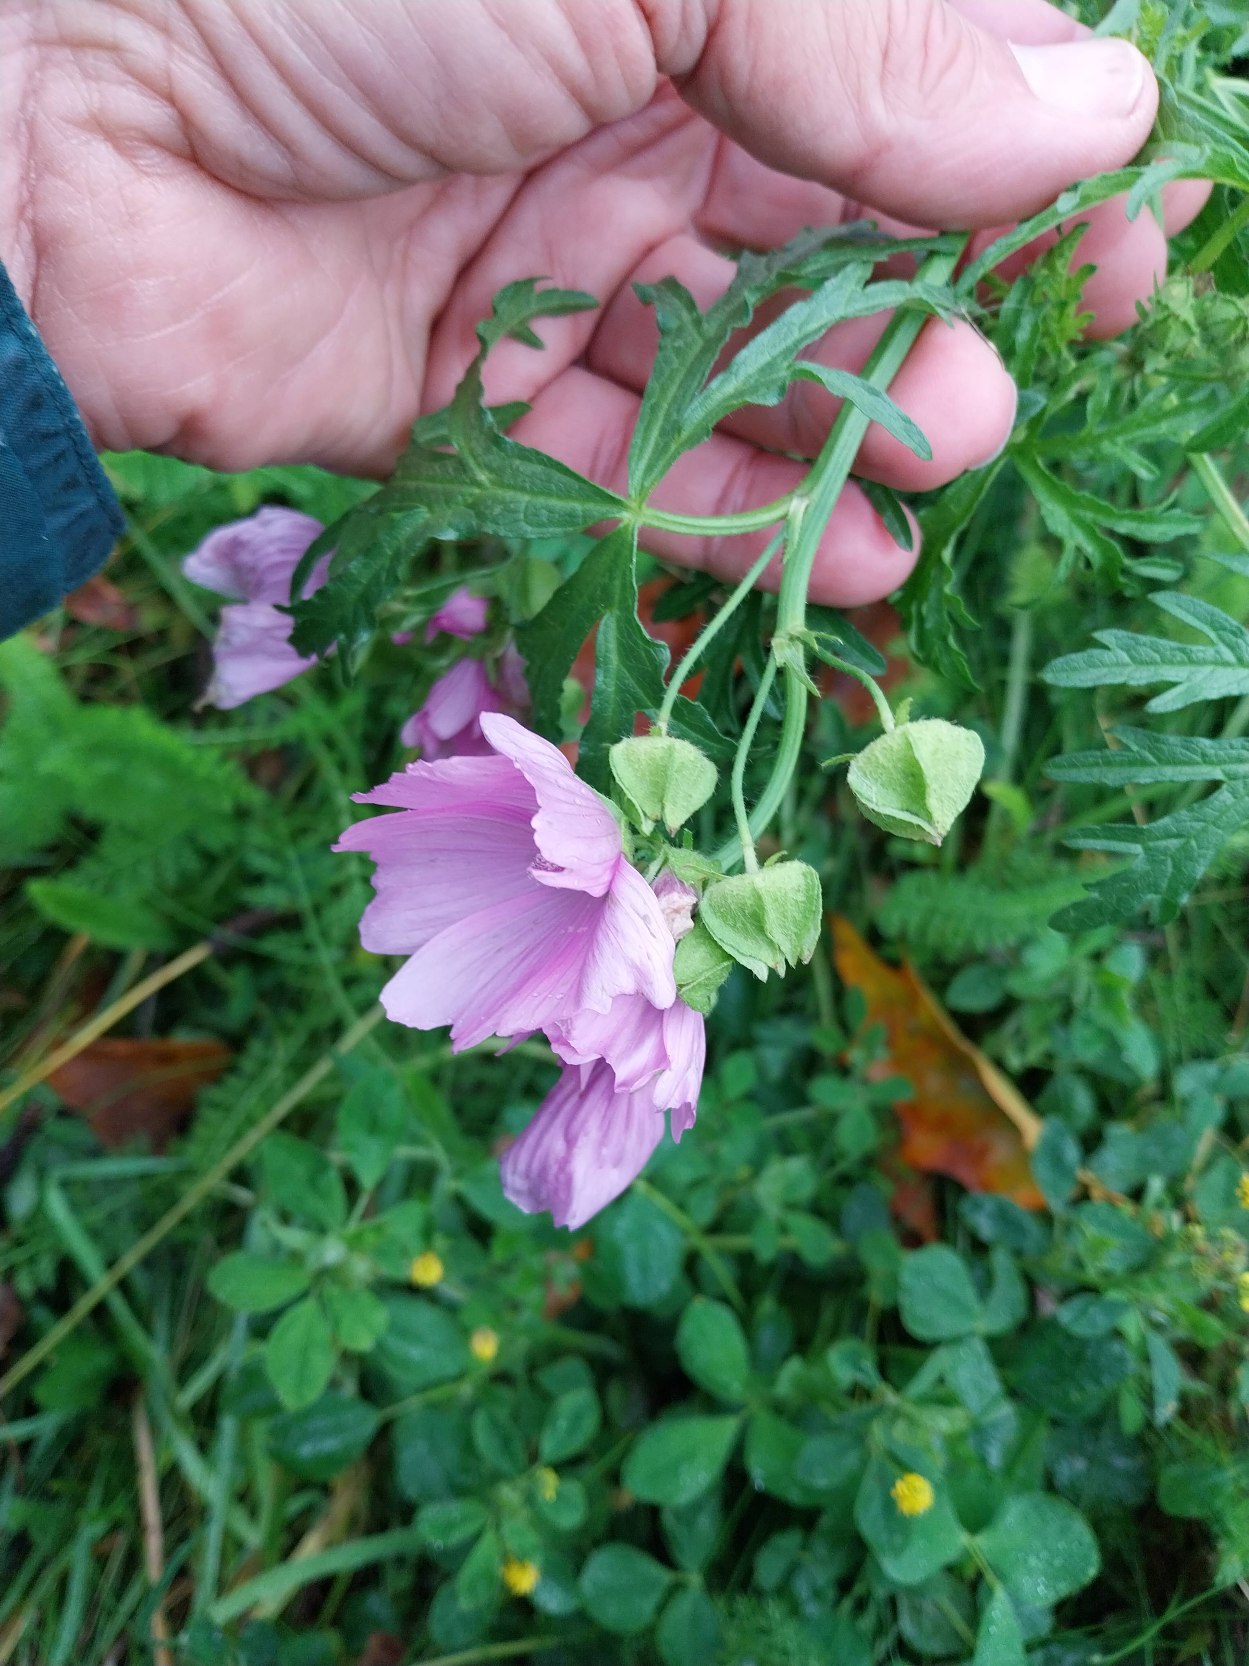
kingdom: Plantae
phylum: Tracheophyta
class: Magnoliopsida
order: Malvales
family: Malvaceae
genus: Malva
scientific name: Malva moschata
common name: Moskus-katost
